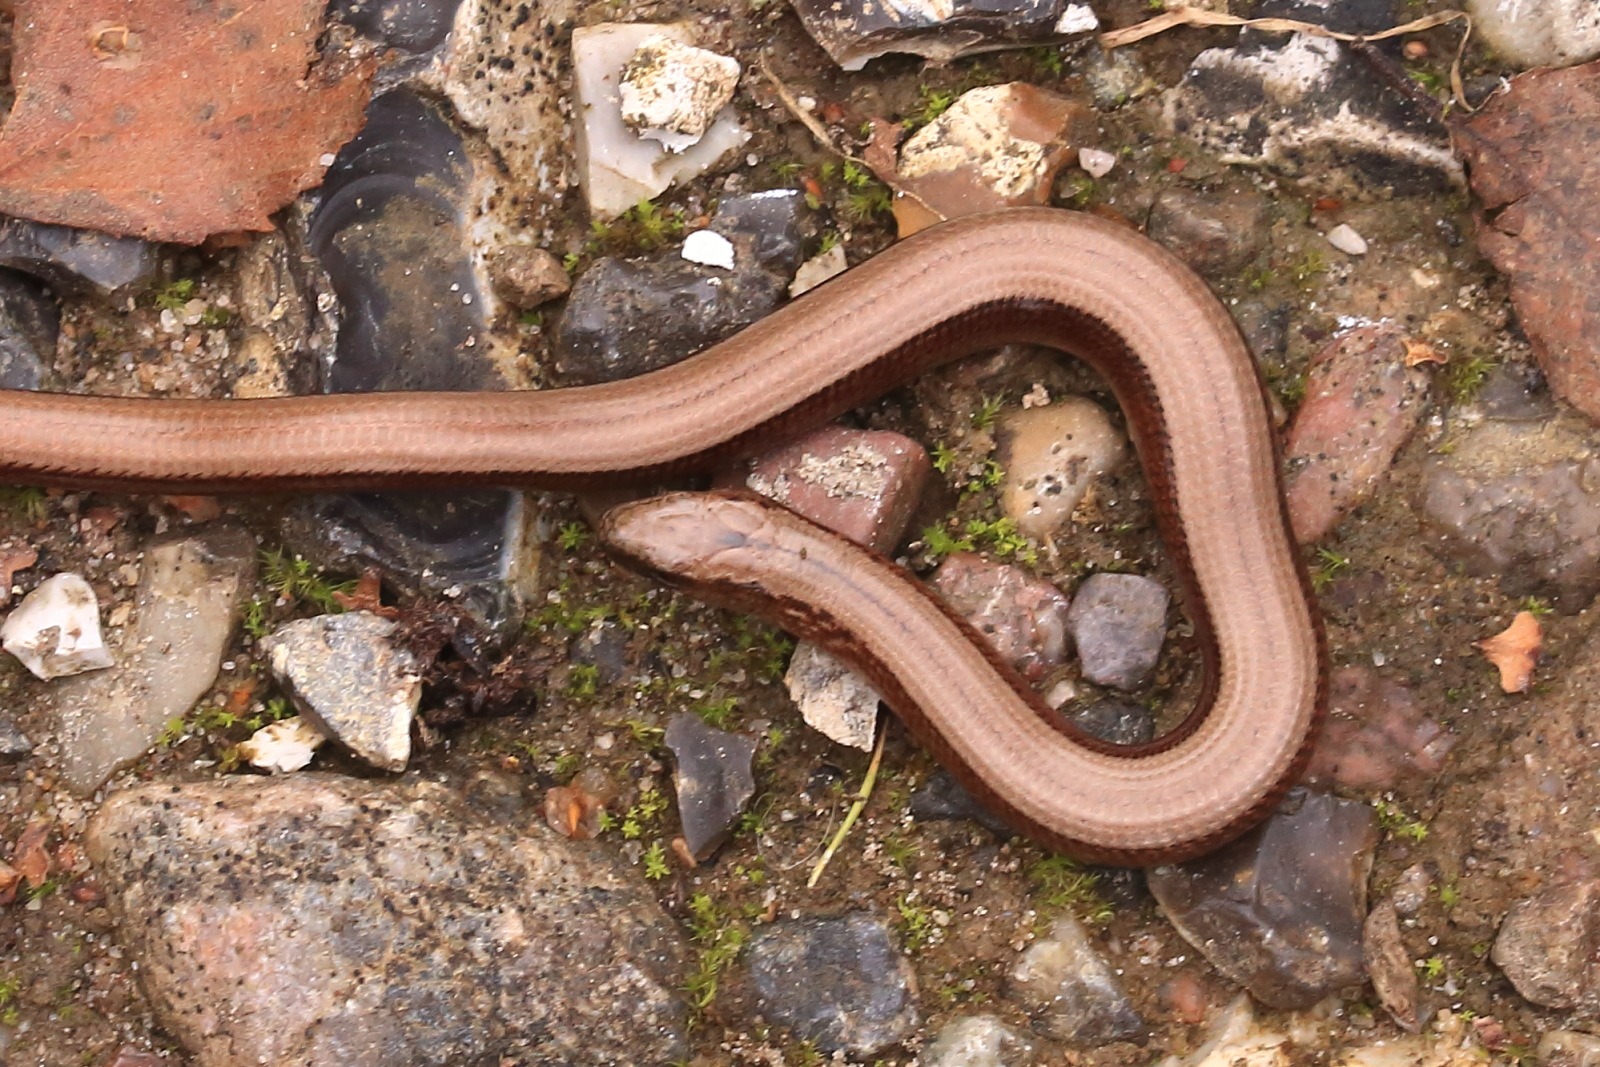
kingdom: Animalia
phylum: Chordata
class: Squamata
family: Anguidae
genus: Anguis
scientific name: Anguis fragilis
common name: Stålorm
